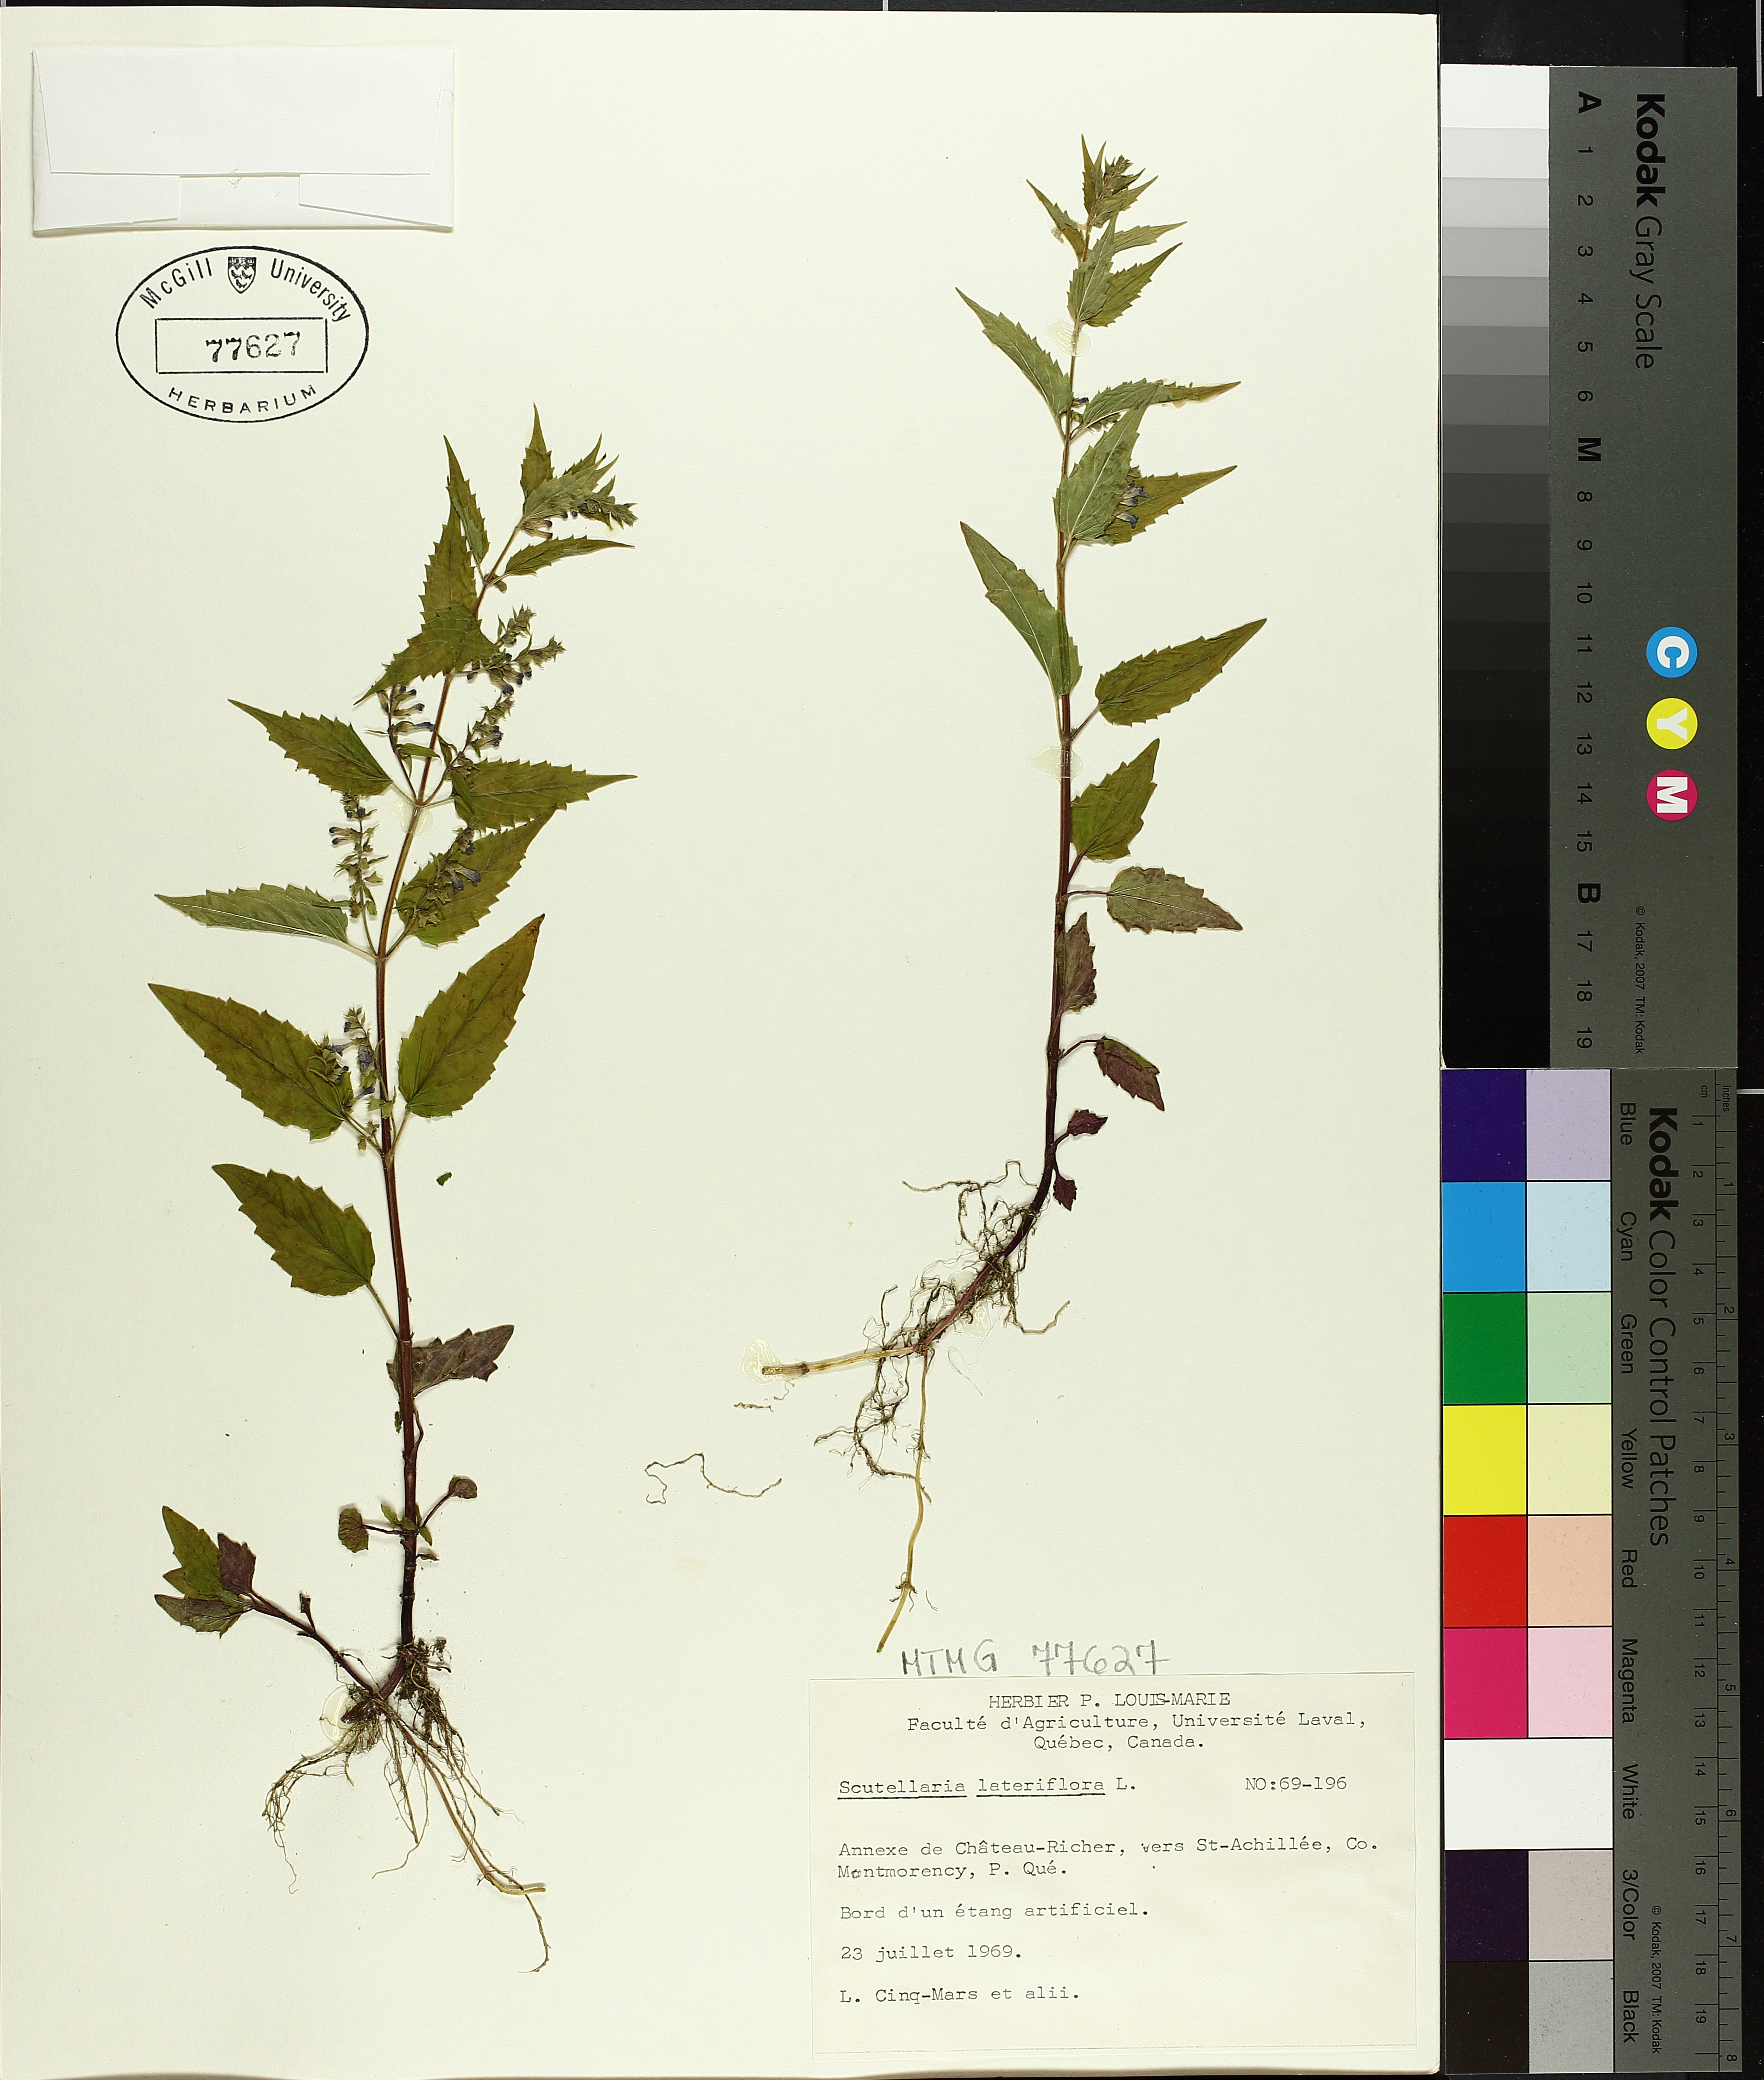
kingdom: Plantae
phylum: Tracheophyta
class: Magnoliopsida
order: Lamiales
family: Lamiaceae
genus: Scutellaria
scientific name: Scutellaria lateriflora
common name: Blue skullcap
